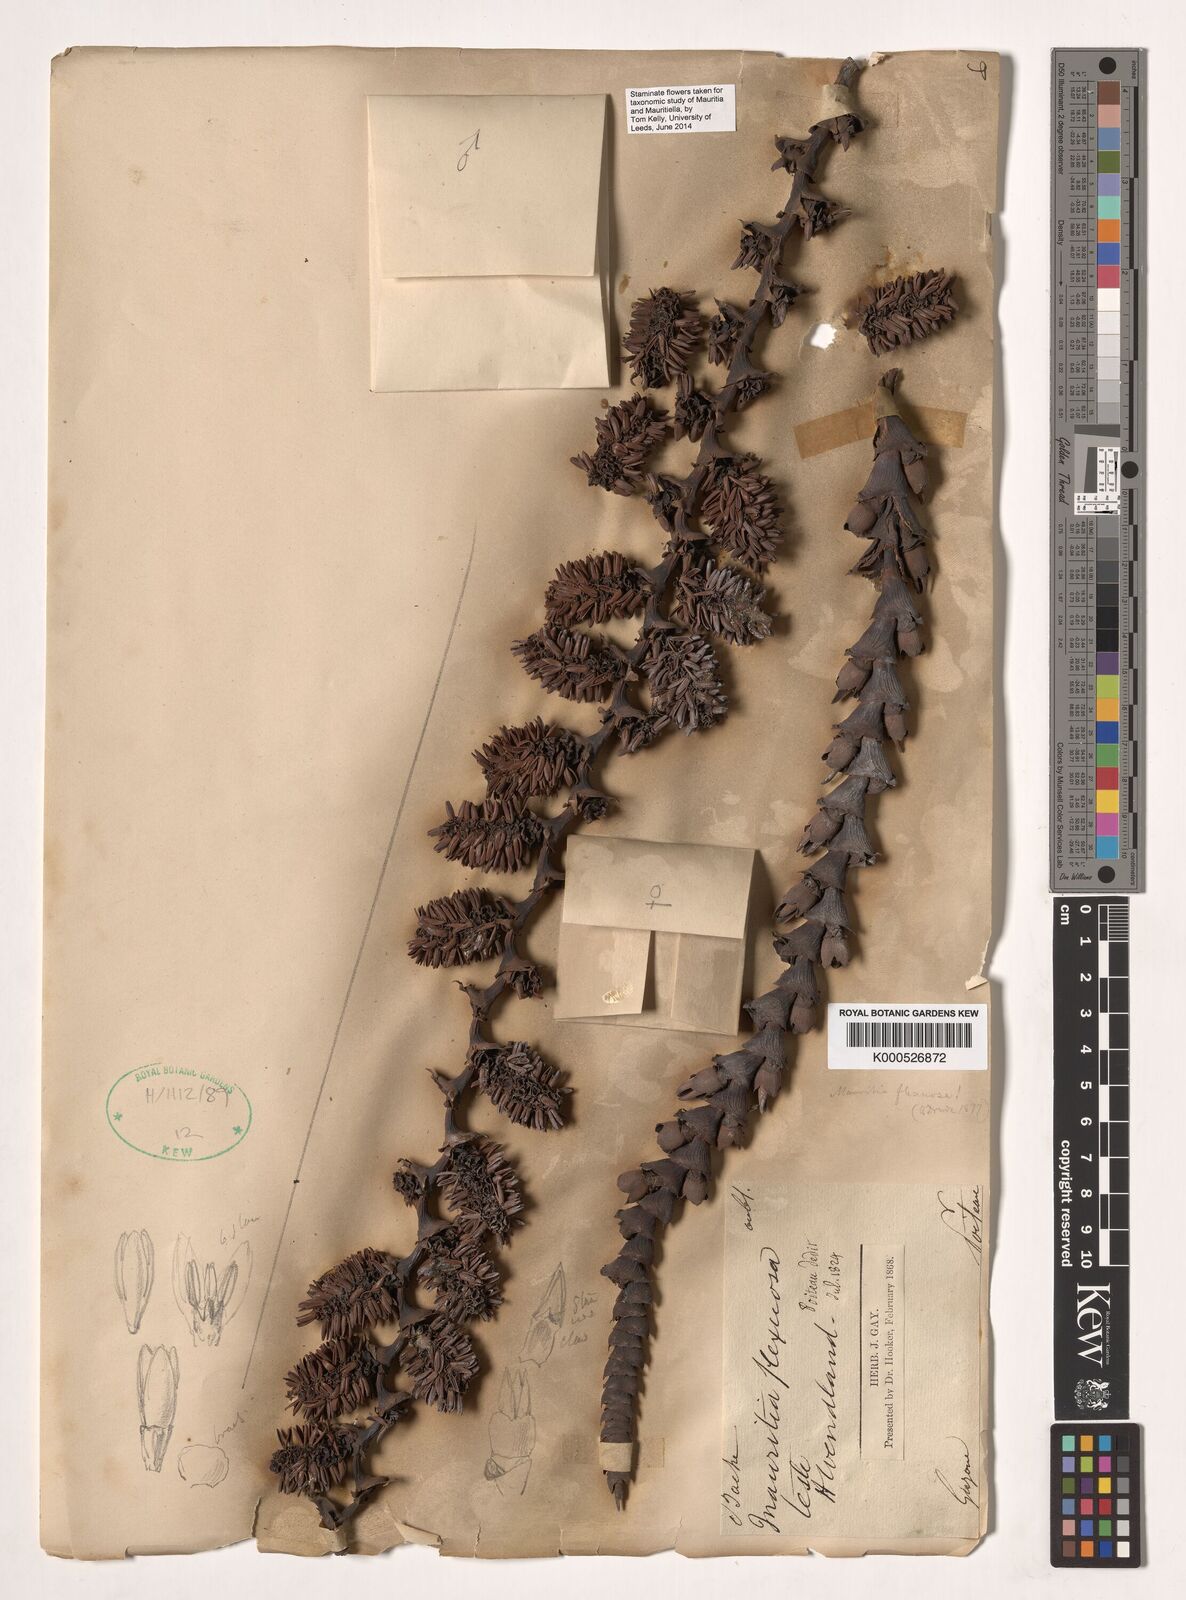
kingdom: Plantae
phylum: Tracheophyta
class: Liliopsida
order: Arecales
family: Arecaceae
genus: Mauritia
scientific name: Mauritia flexuosa
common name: Tree-of-life
